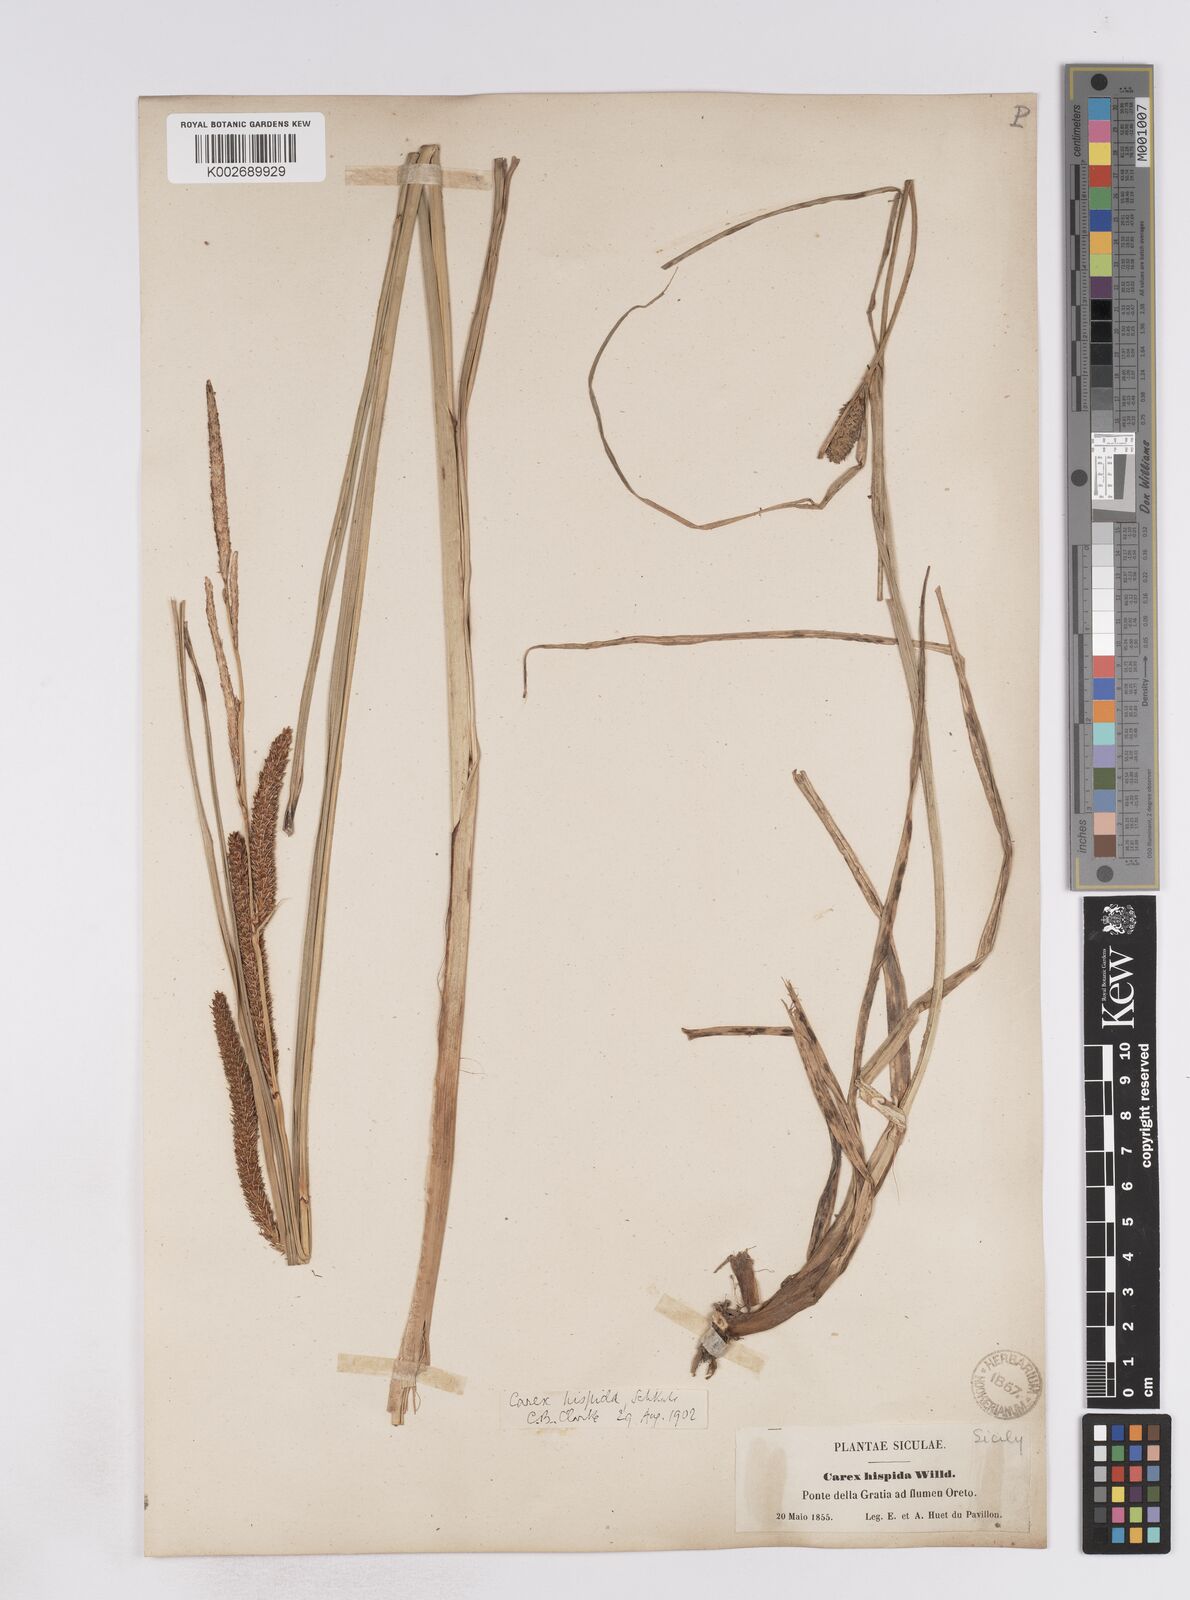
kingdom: Plantae
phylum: Tracheophyta
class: Liliopsida
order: Poales
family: Cyperaceae
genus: Carex
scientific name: Carex hispida
